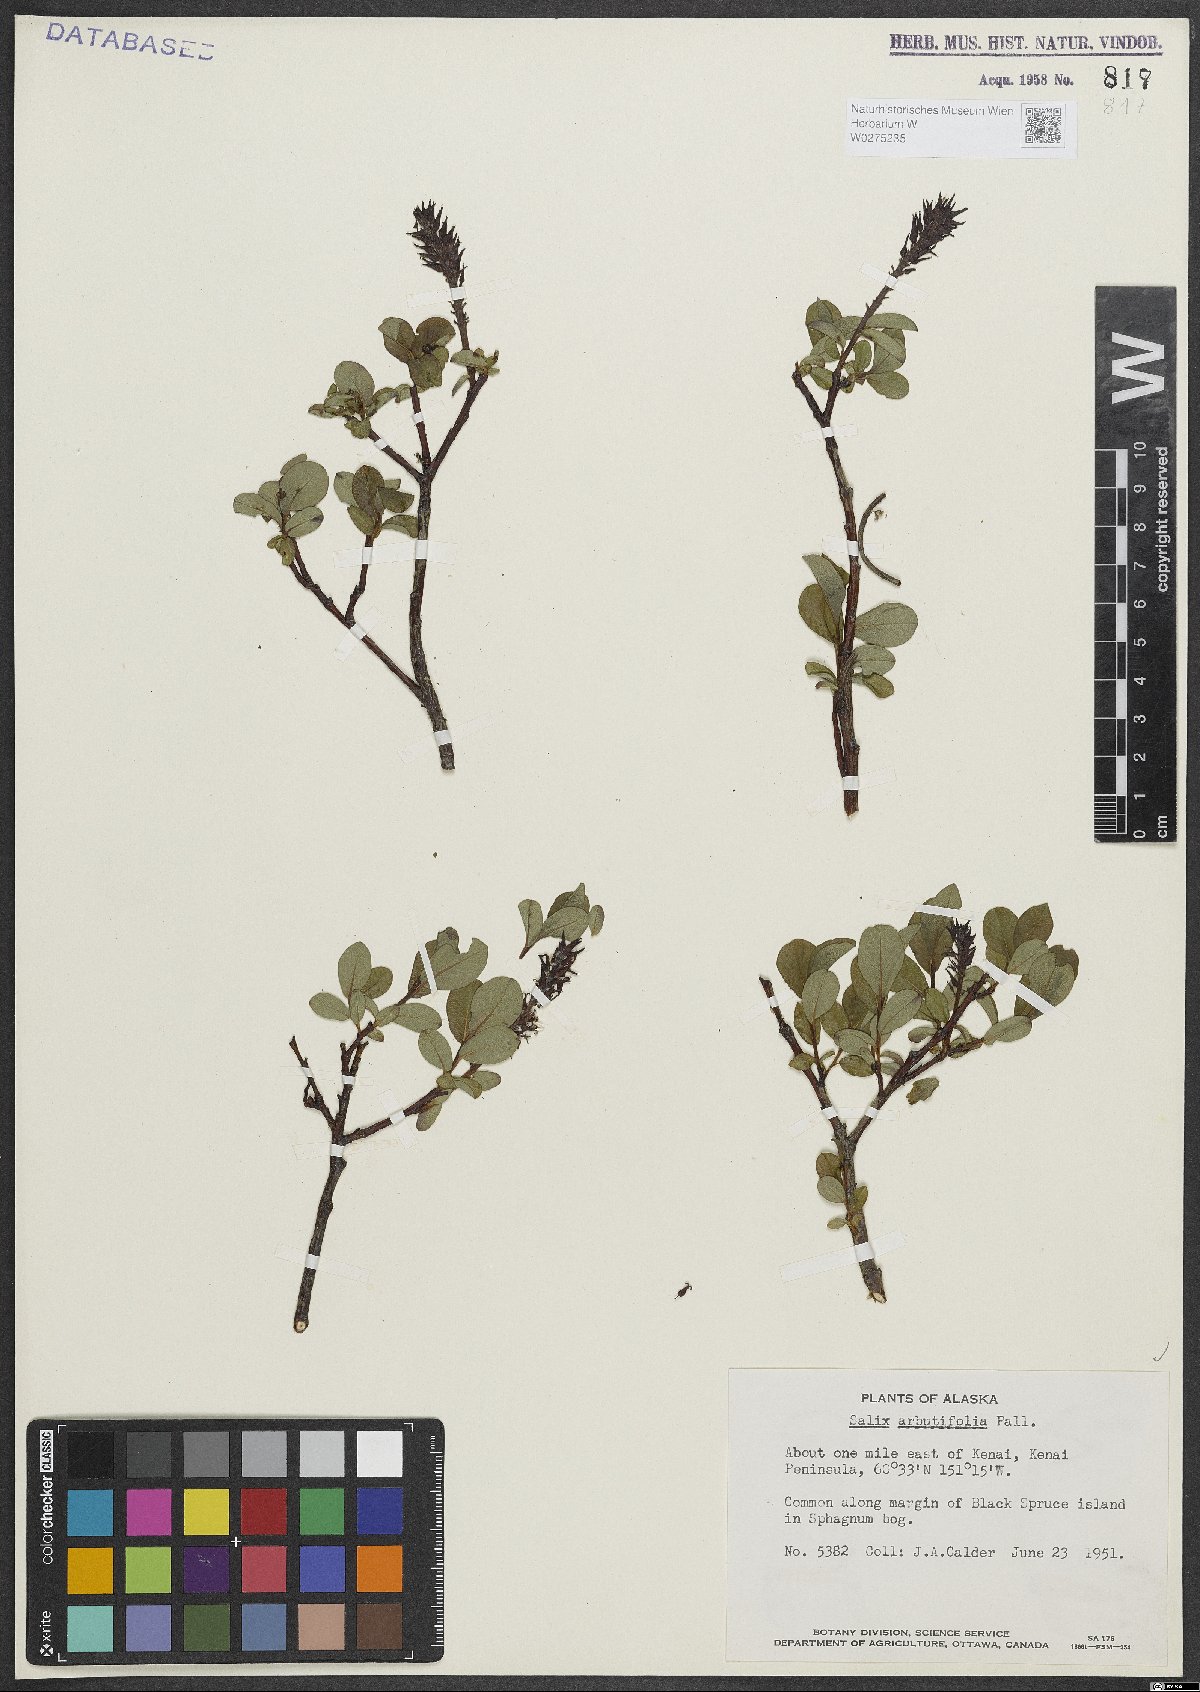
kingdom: Plantae
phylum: Tracheophyta
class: Magnoliopsida
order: Malpighiales
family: Salicaceae
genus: Chosenia
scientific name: Chosenia arbutifolia
